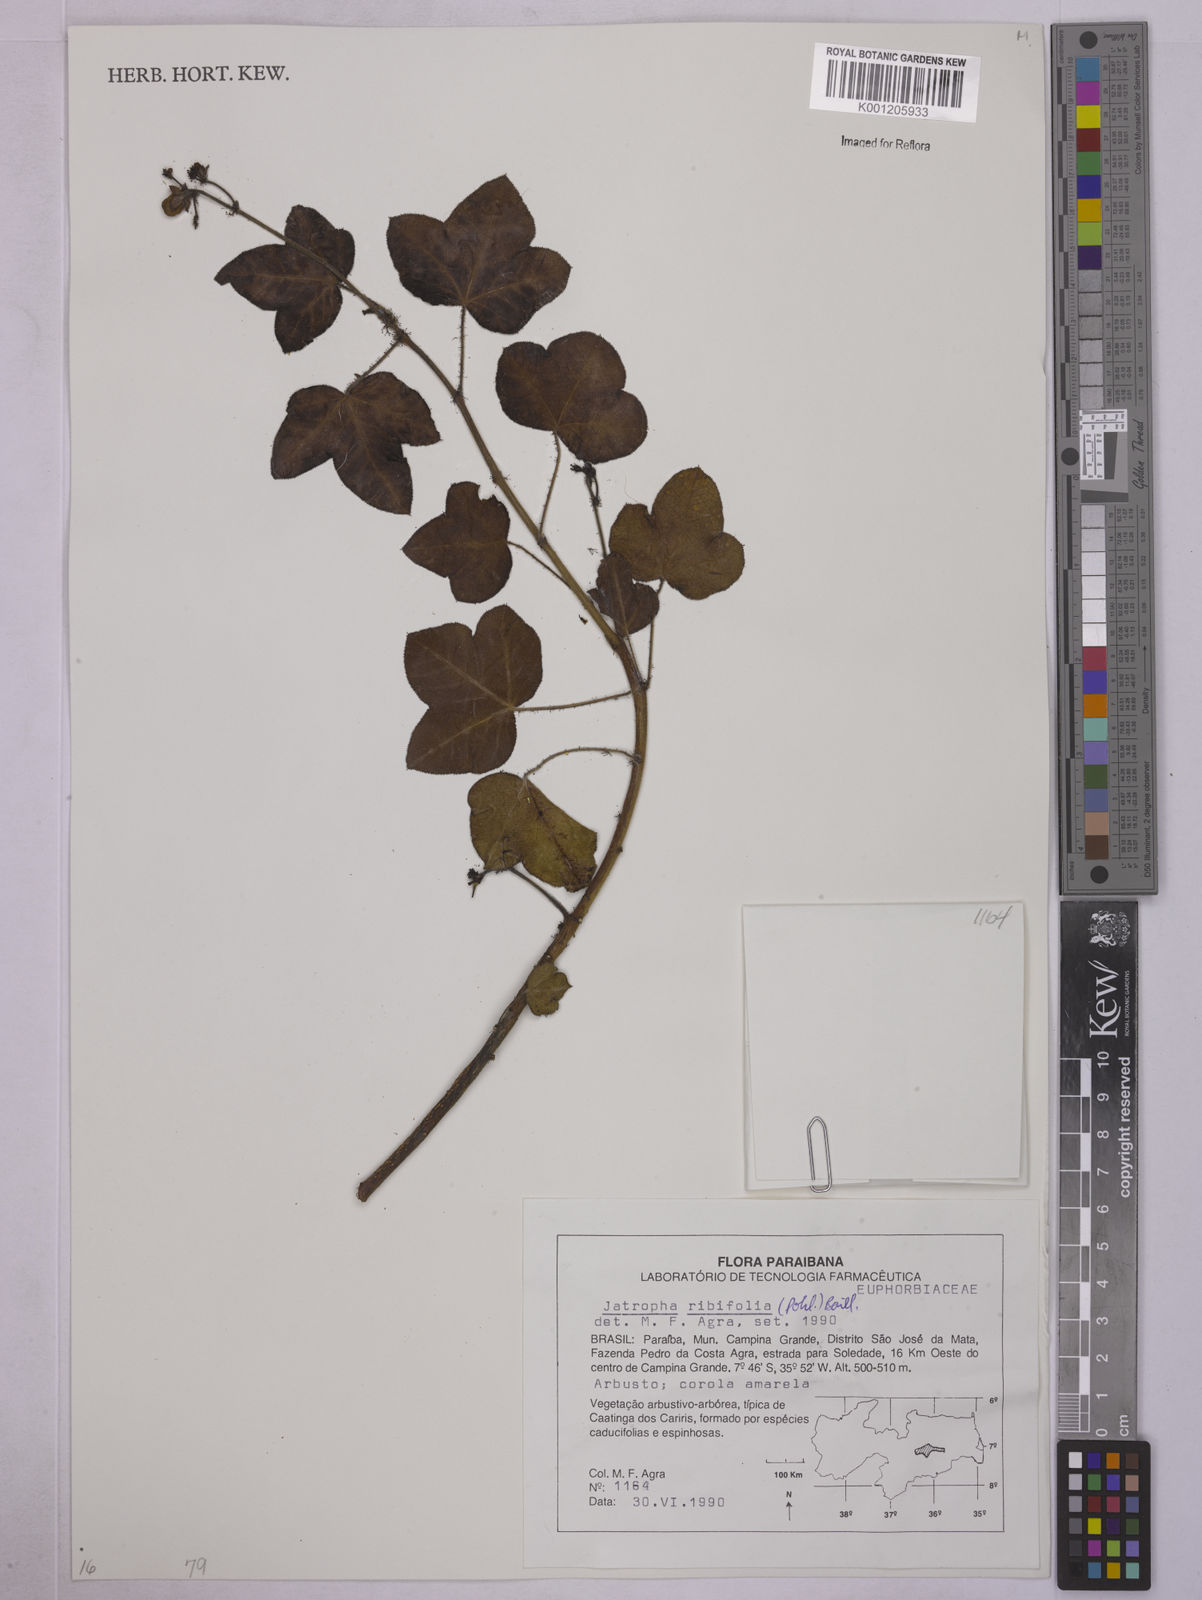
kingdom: Plantae
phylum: Tracheophyta
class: Magnoliopsida
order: Malpighiales
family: Euphorbiaceae
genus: Jatropha
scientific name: Jatropha ribifolia
